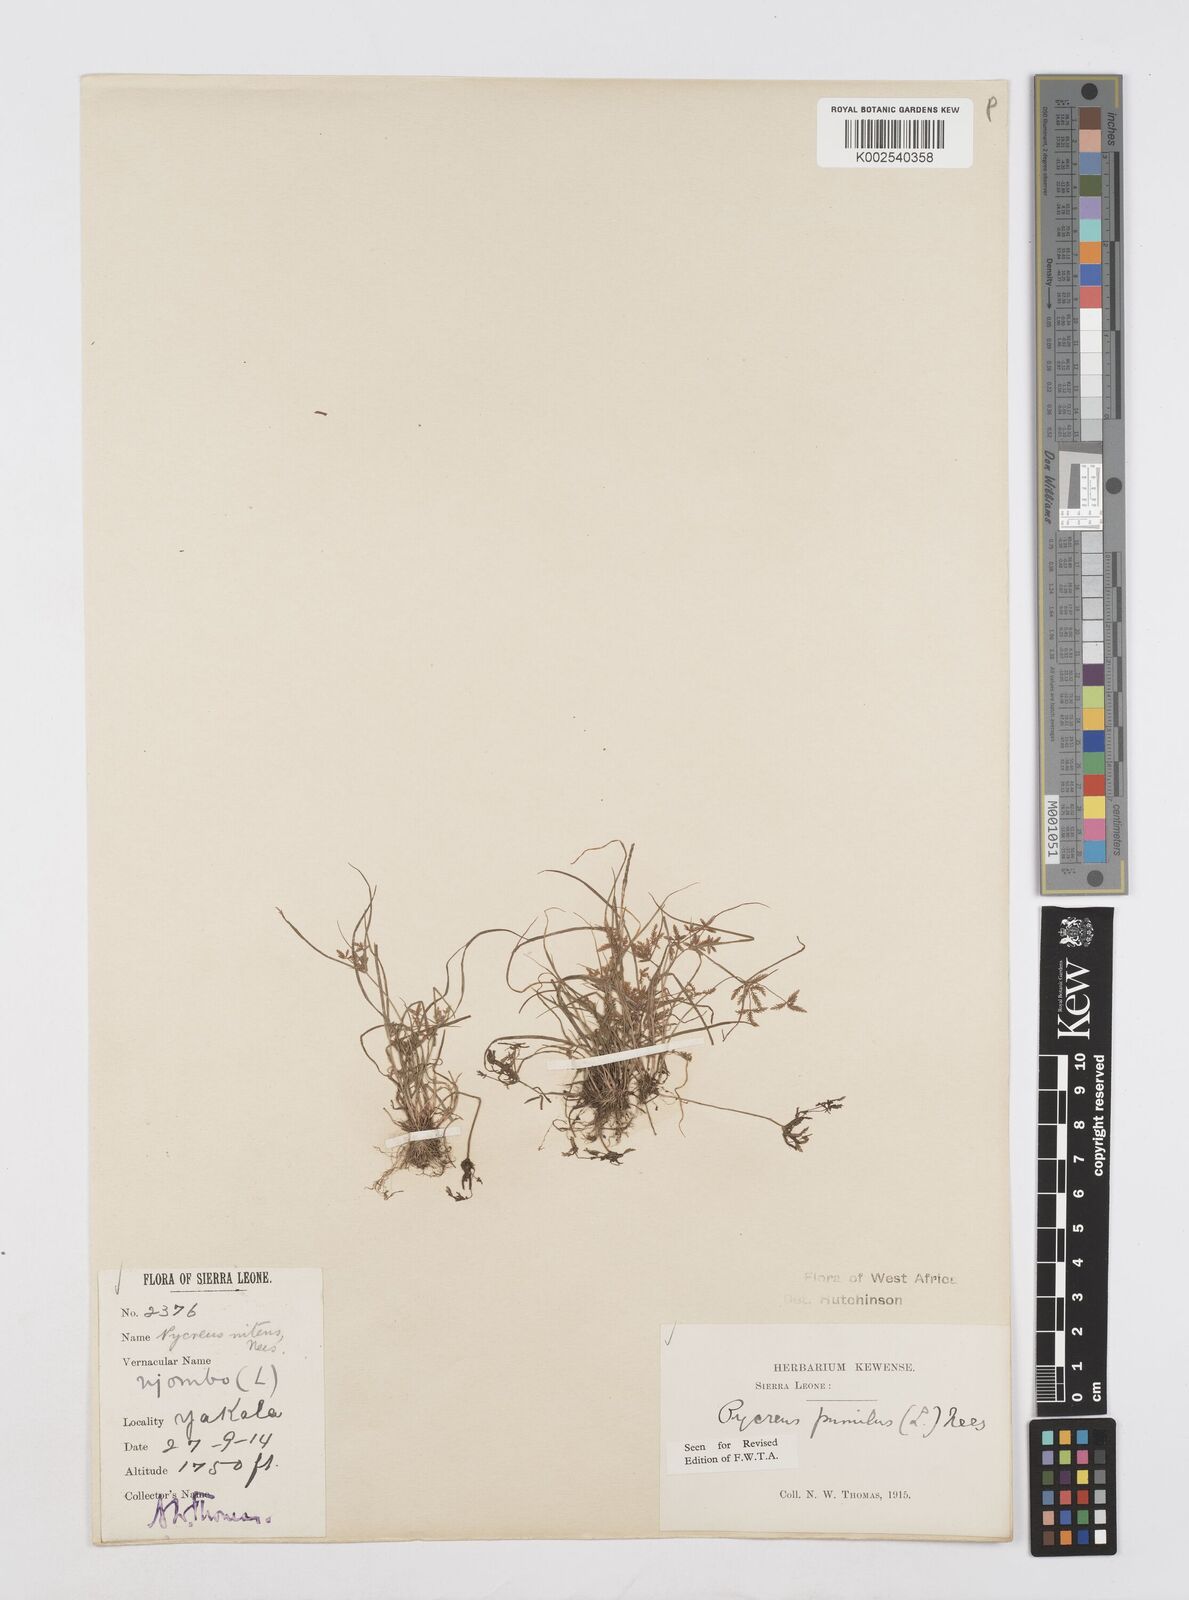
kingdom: Plantae
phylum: Tracheophyta
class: Liliopsida
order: Poales
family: Cyperaceae
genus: Cyperus
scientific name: Cyperus pumilus
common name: Low flatsedge
